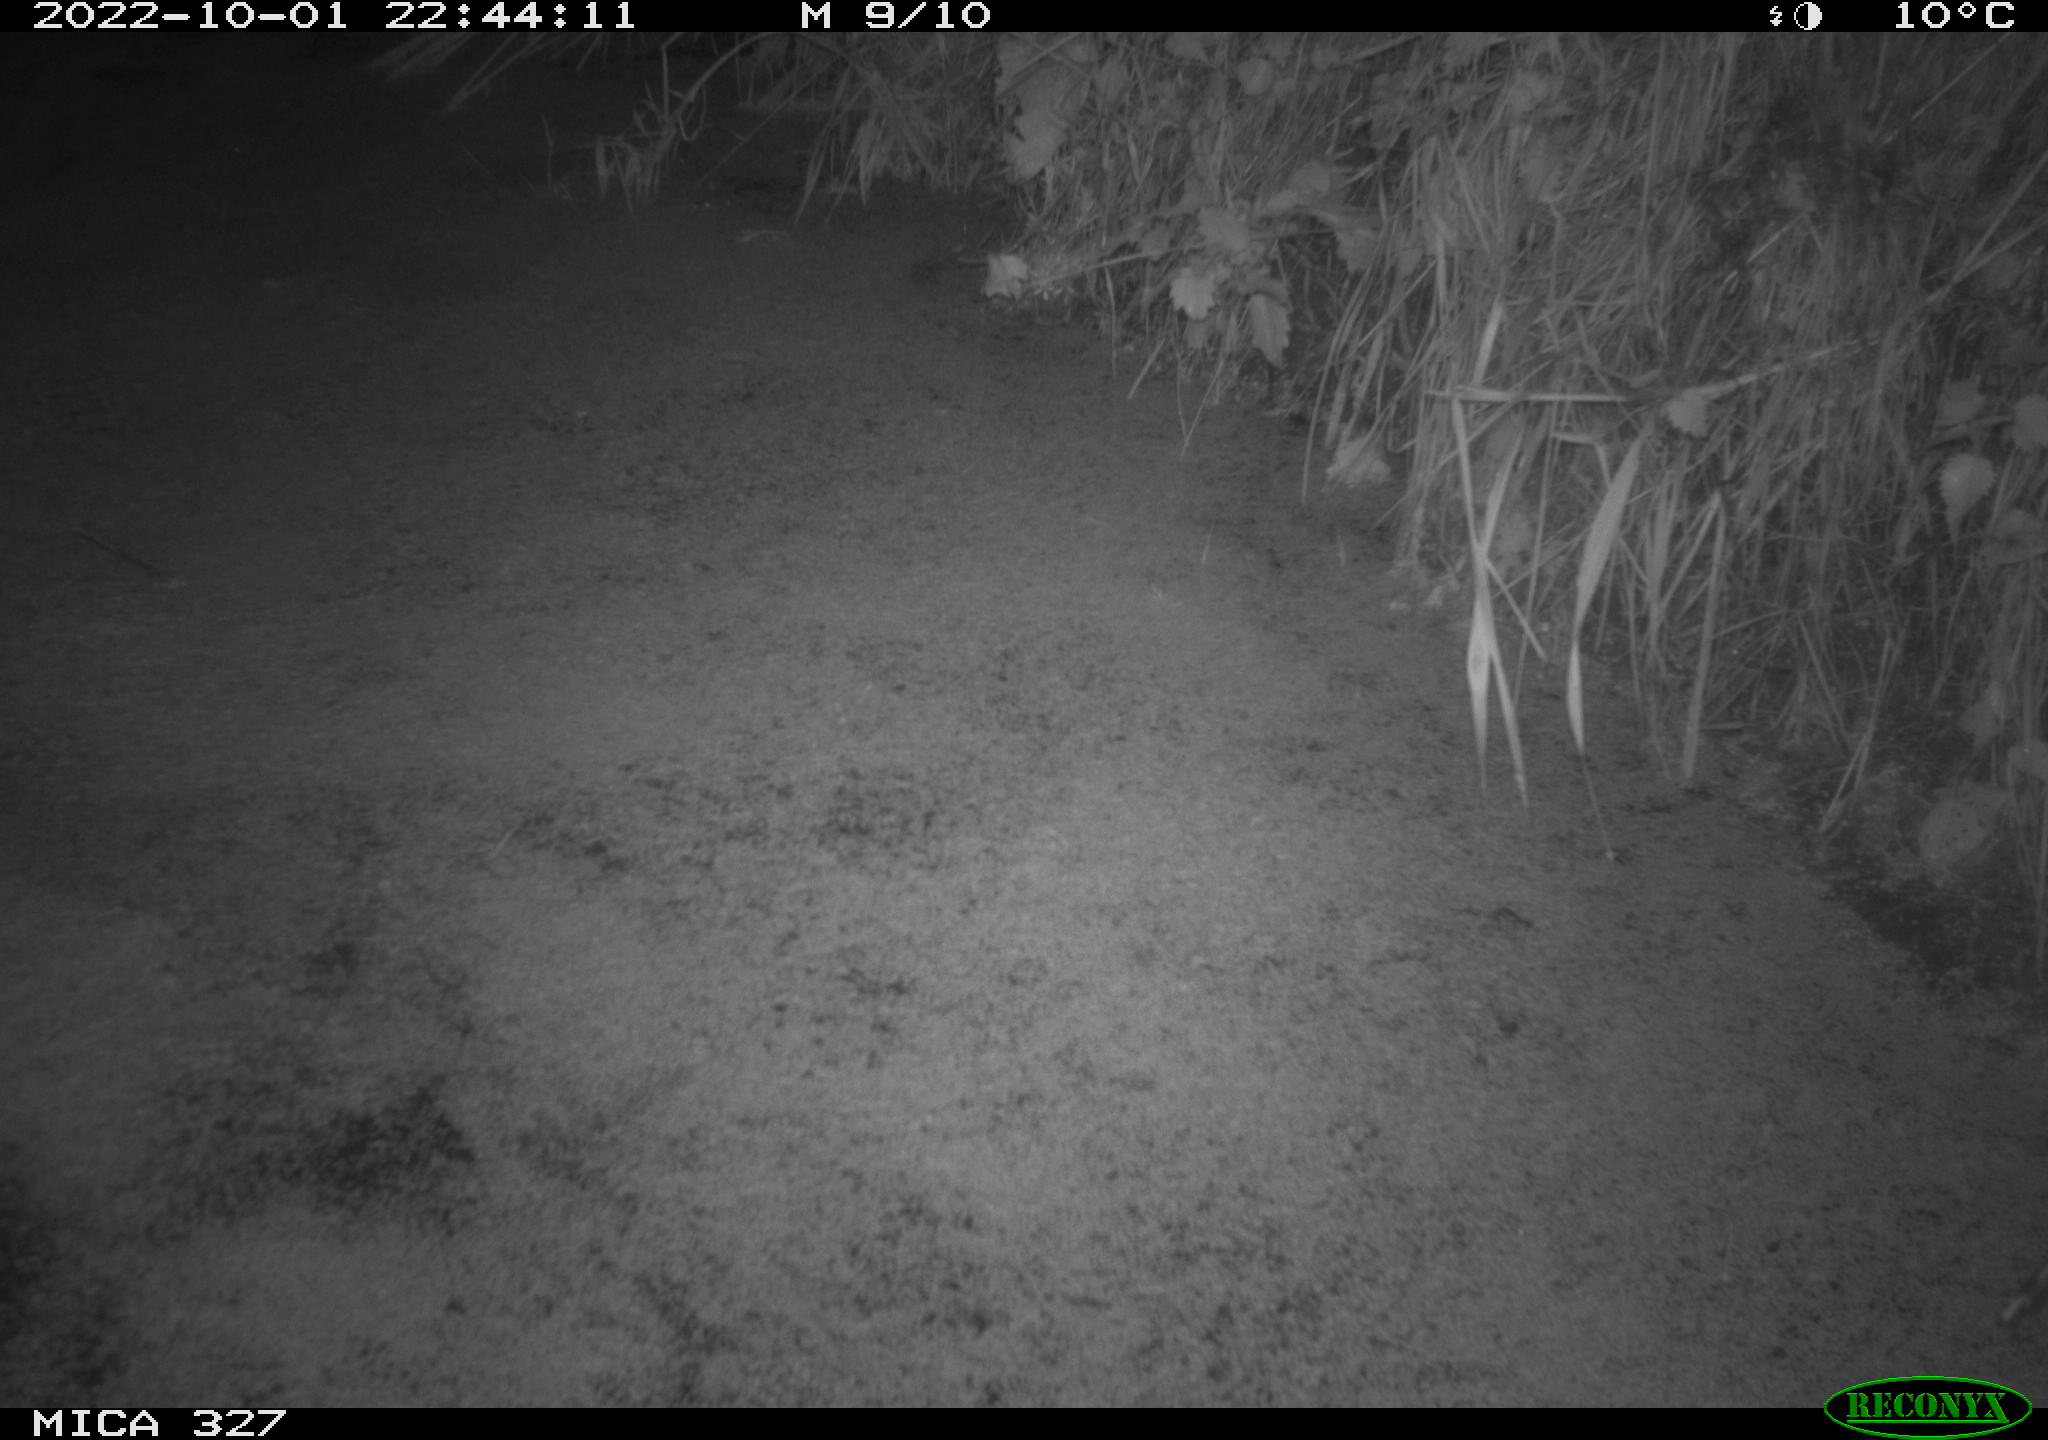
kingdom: Animalia
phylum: Chordata
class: Mammalia
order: Rodentia
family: Cricetidae
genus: Ondatra
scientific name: Ondatra zibethicus
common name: Muskrat
